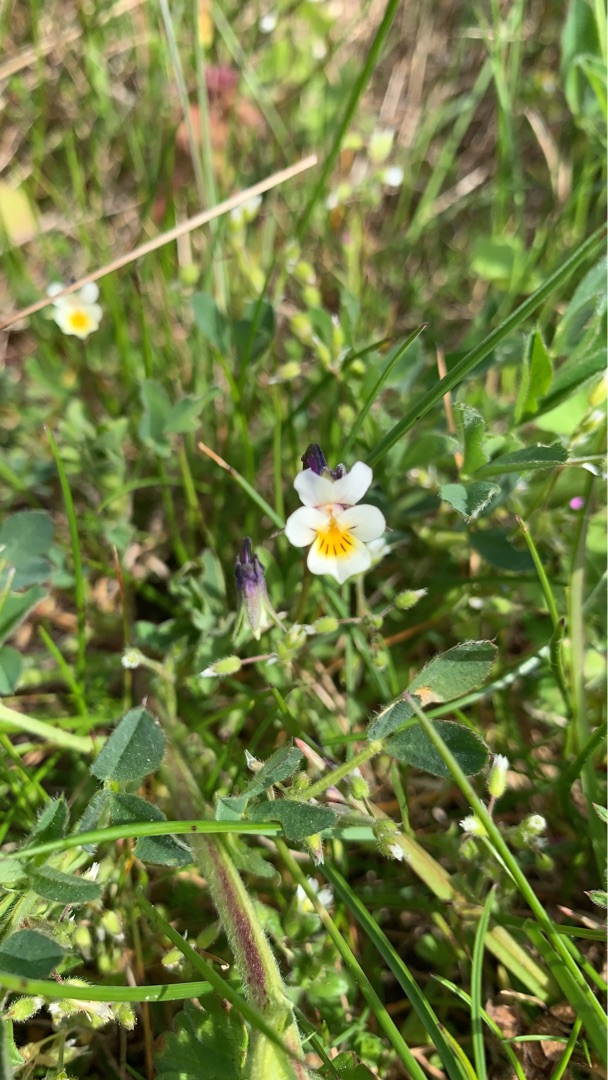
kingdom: Plantae
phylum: Tracheophyta
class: Magnoliopsida
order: Malpighiales
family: Violaceae
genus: Viola
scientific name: Viola arvensis
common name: Ager-stedmoderblomst
